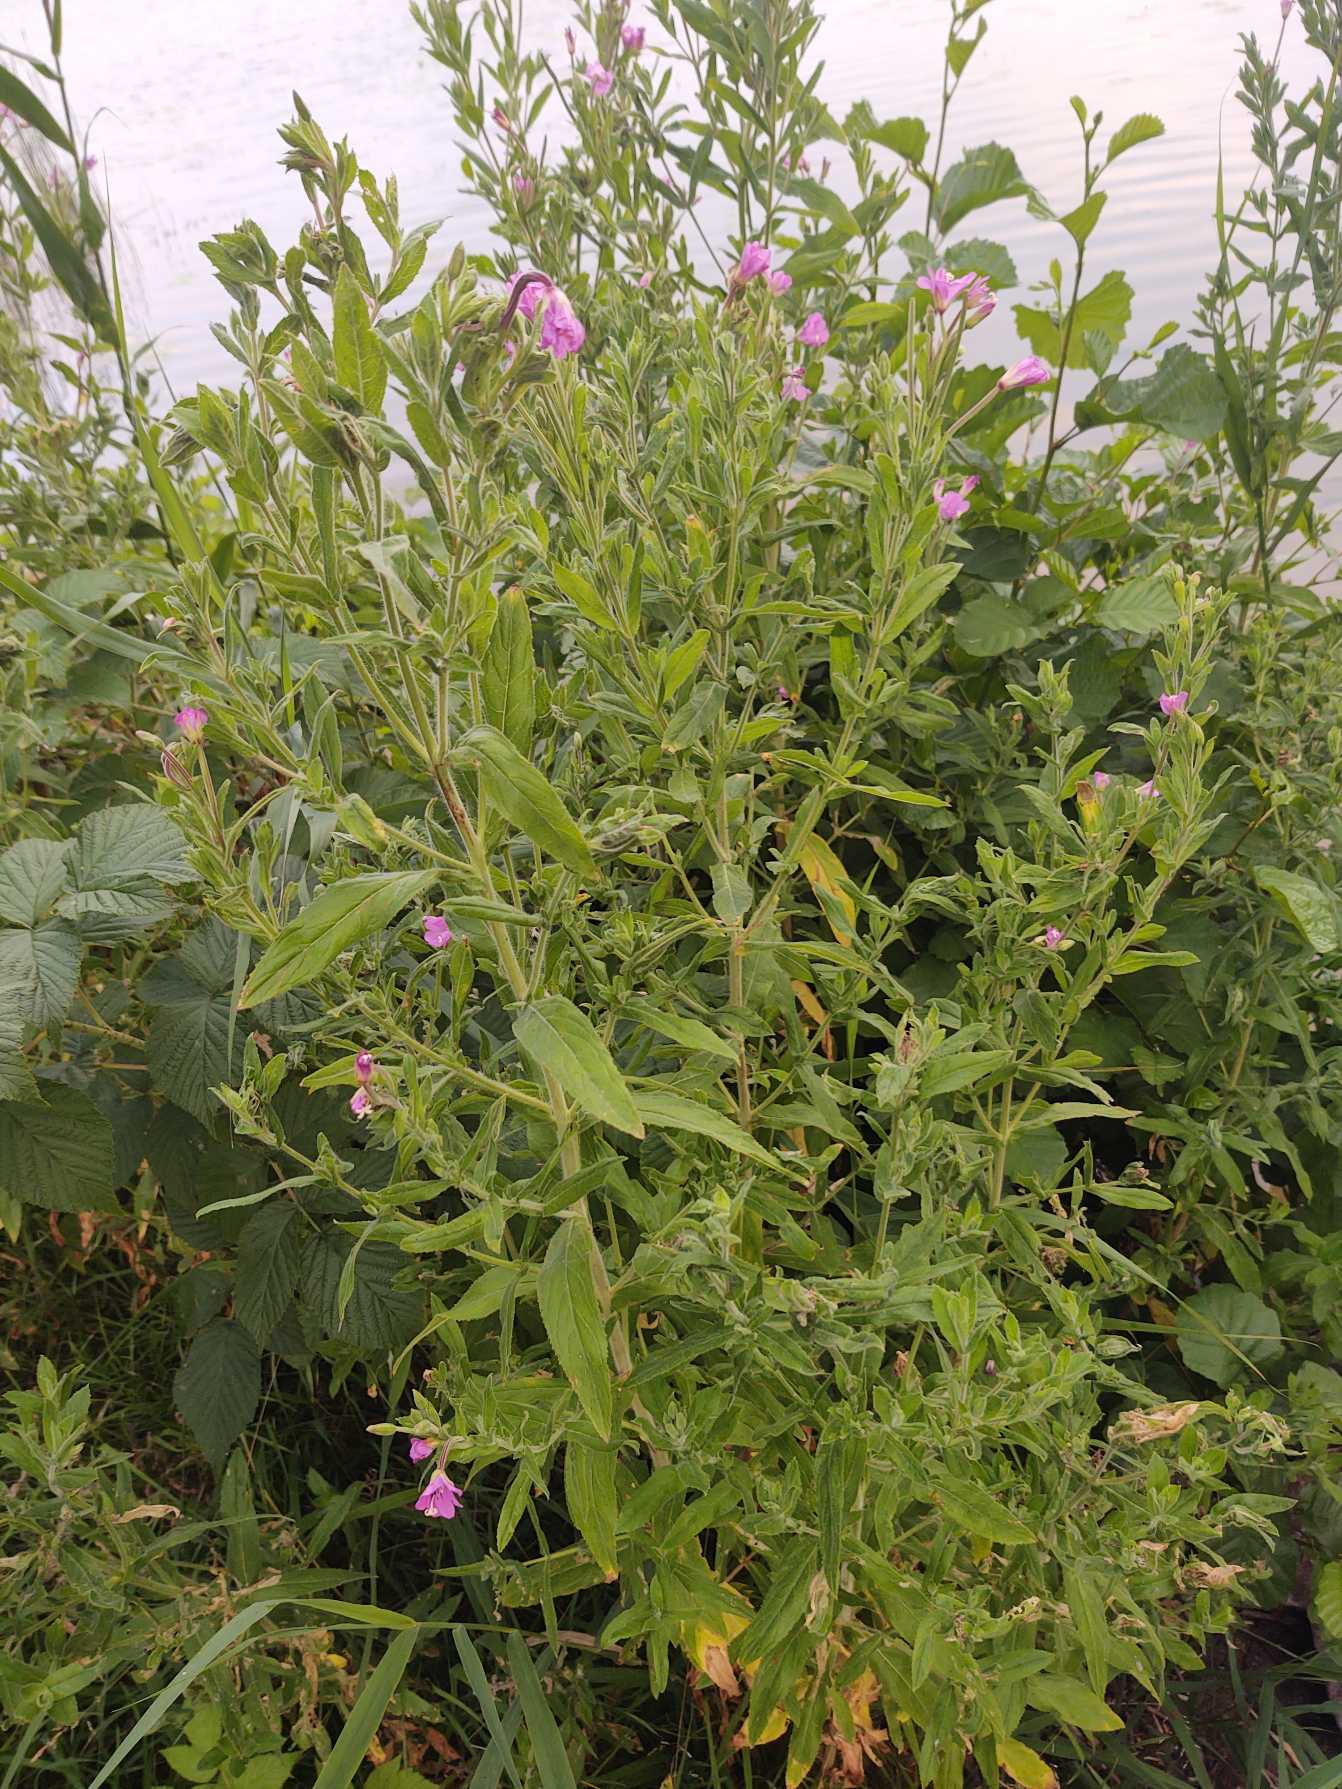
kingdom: Plantae
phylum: Tracheophyta
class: Magnoliopsida
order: Myrtales
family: Onagraceae
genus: Epilobium
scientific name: Epilobium hirsutum
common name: Lådden dueurt
